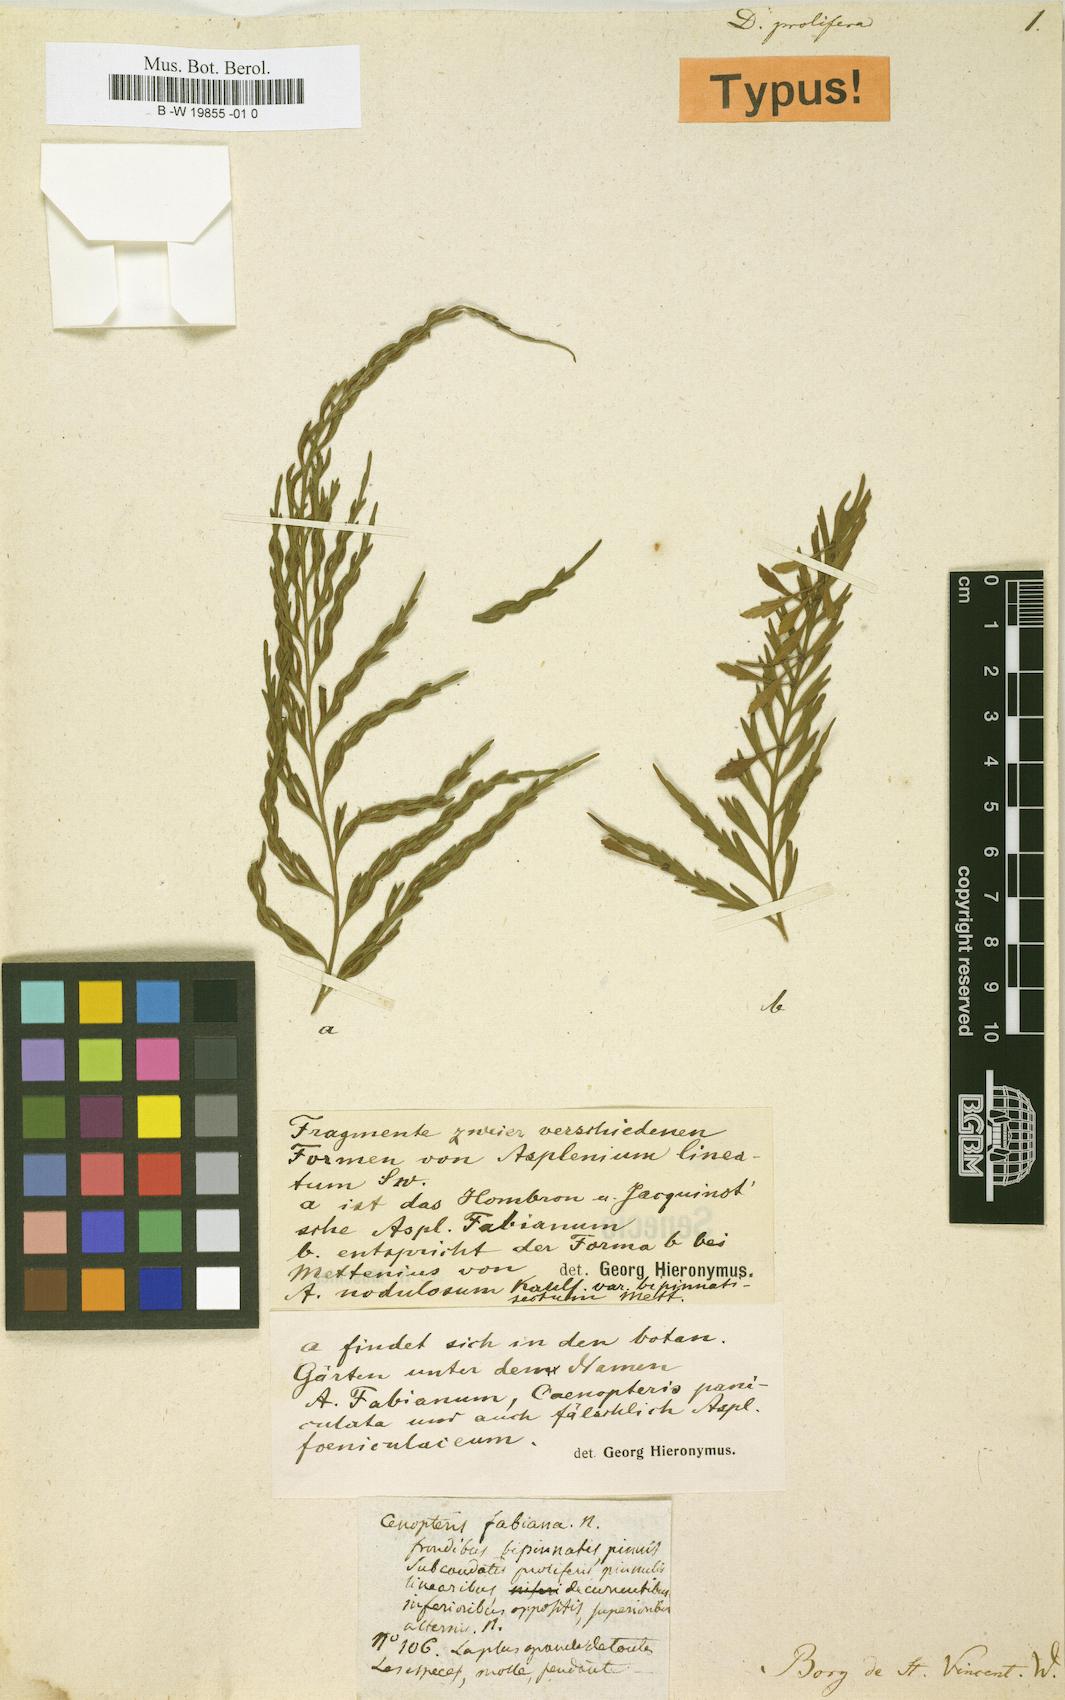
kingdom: Plantae
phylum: Tracheophyta
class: Polypodiopsida
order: Polypodiales
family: Aspleniaceae
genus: Asplenium
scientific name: Asplenium daucifolium
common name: Mauritius spleenwort
